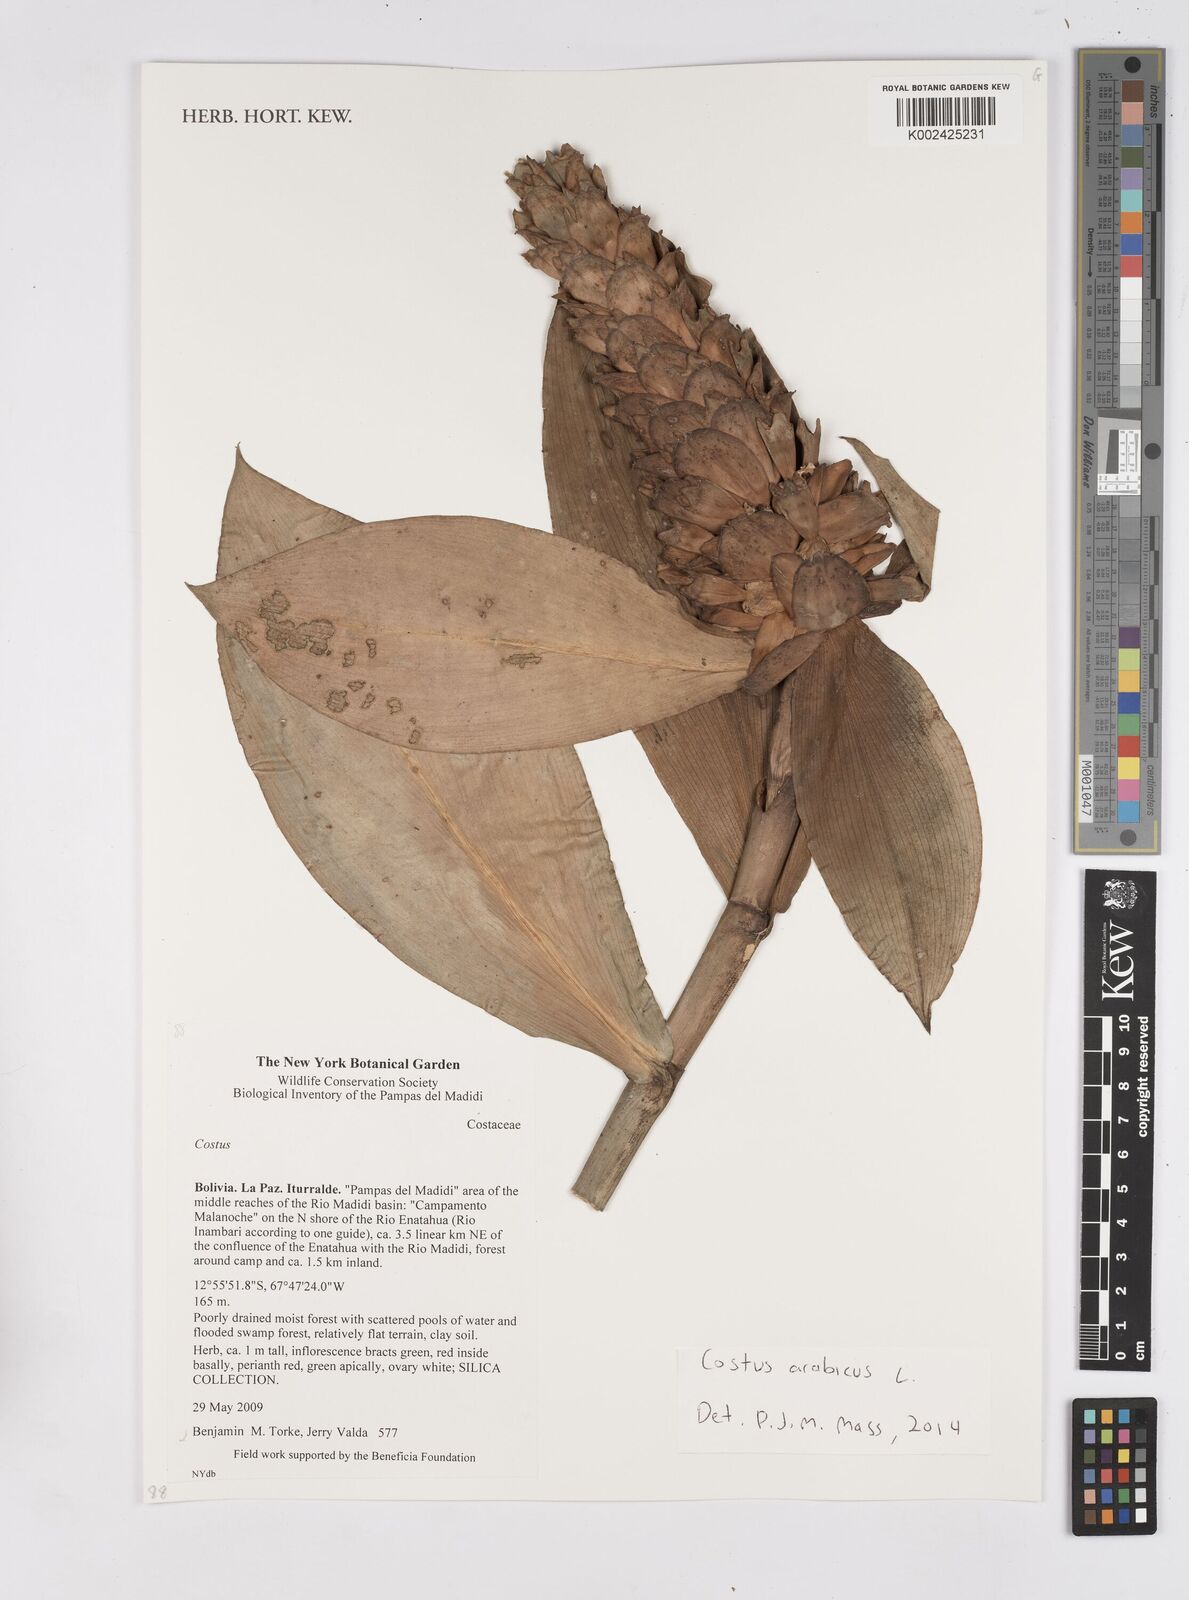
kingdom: Plantae
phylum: Tracheophyta
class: Liliopsida
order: Zingiberales
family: Costaceae
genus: Costus
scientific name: Costus arabicus
